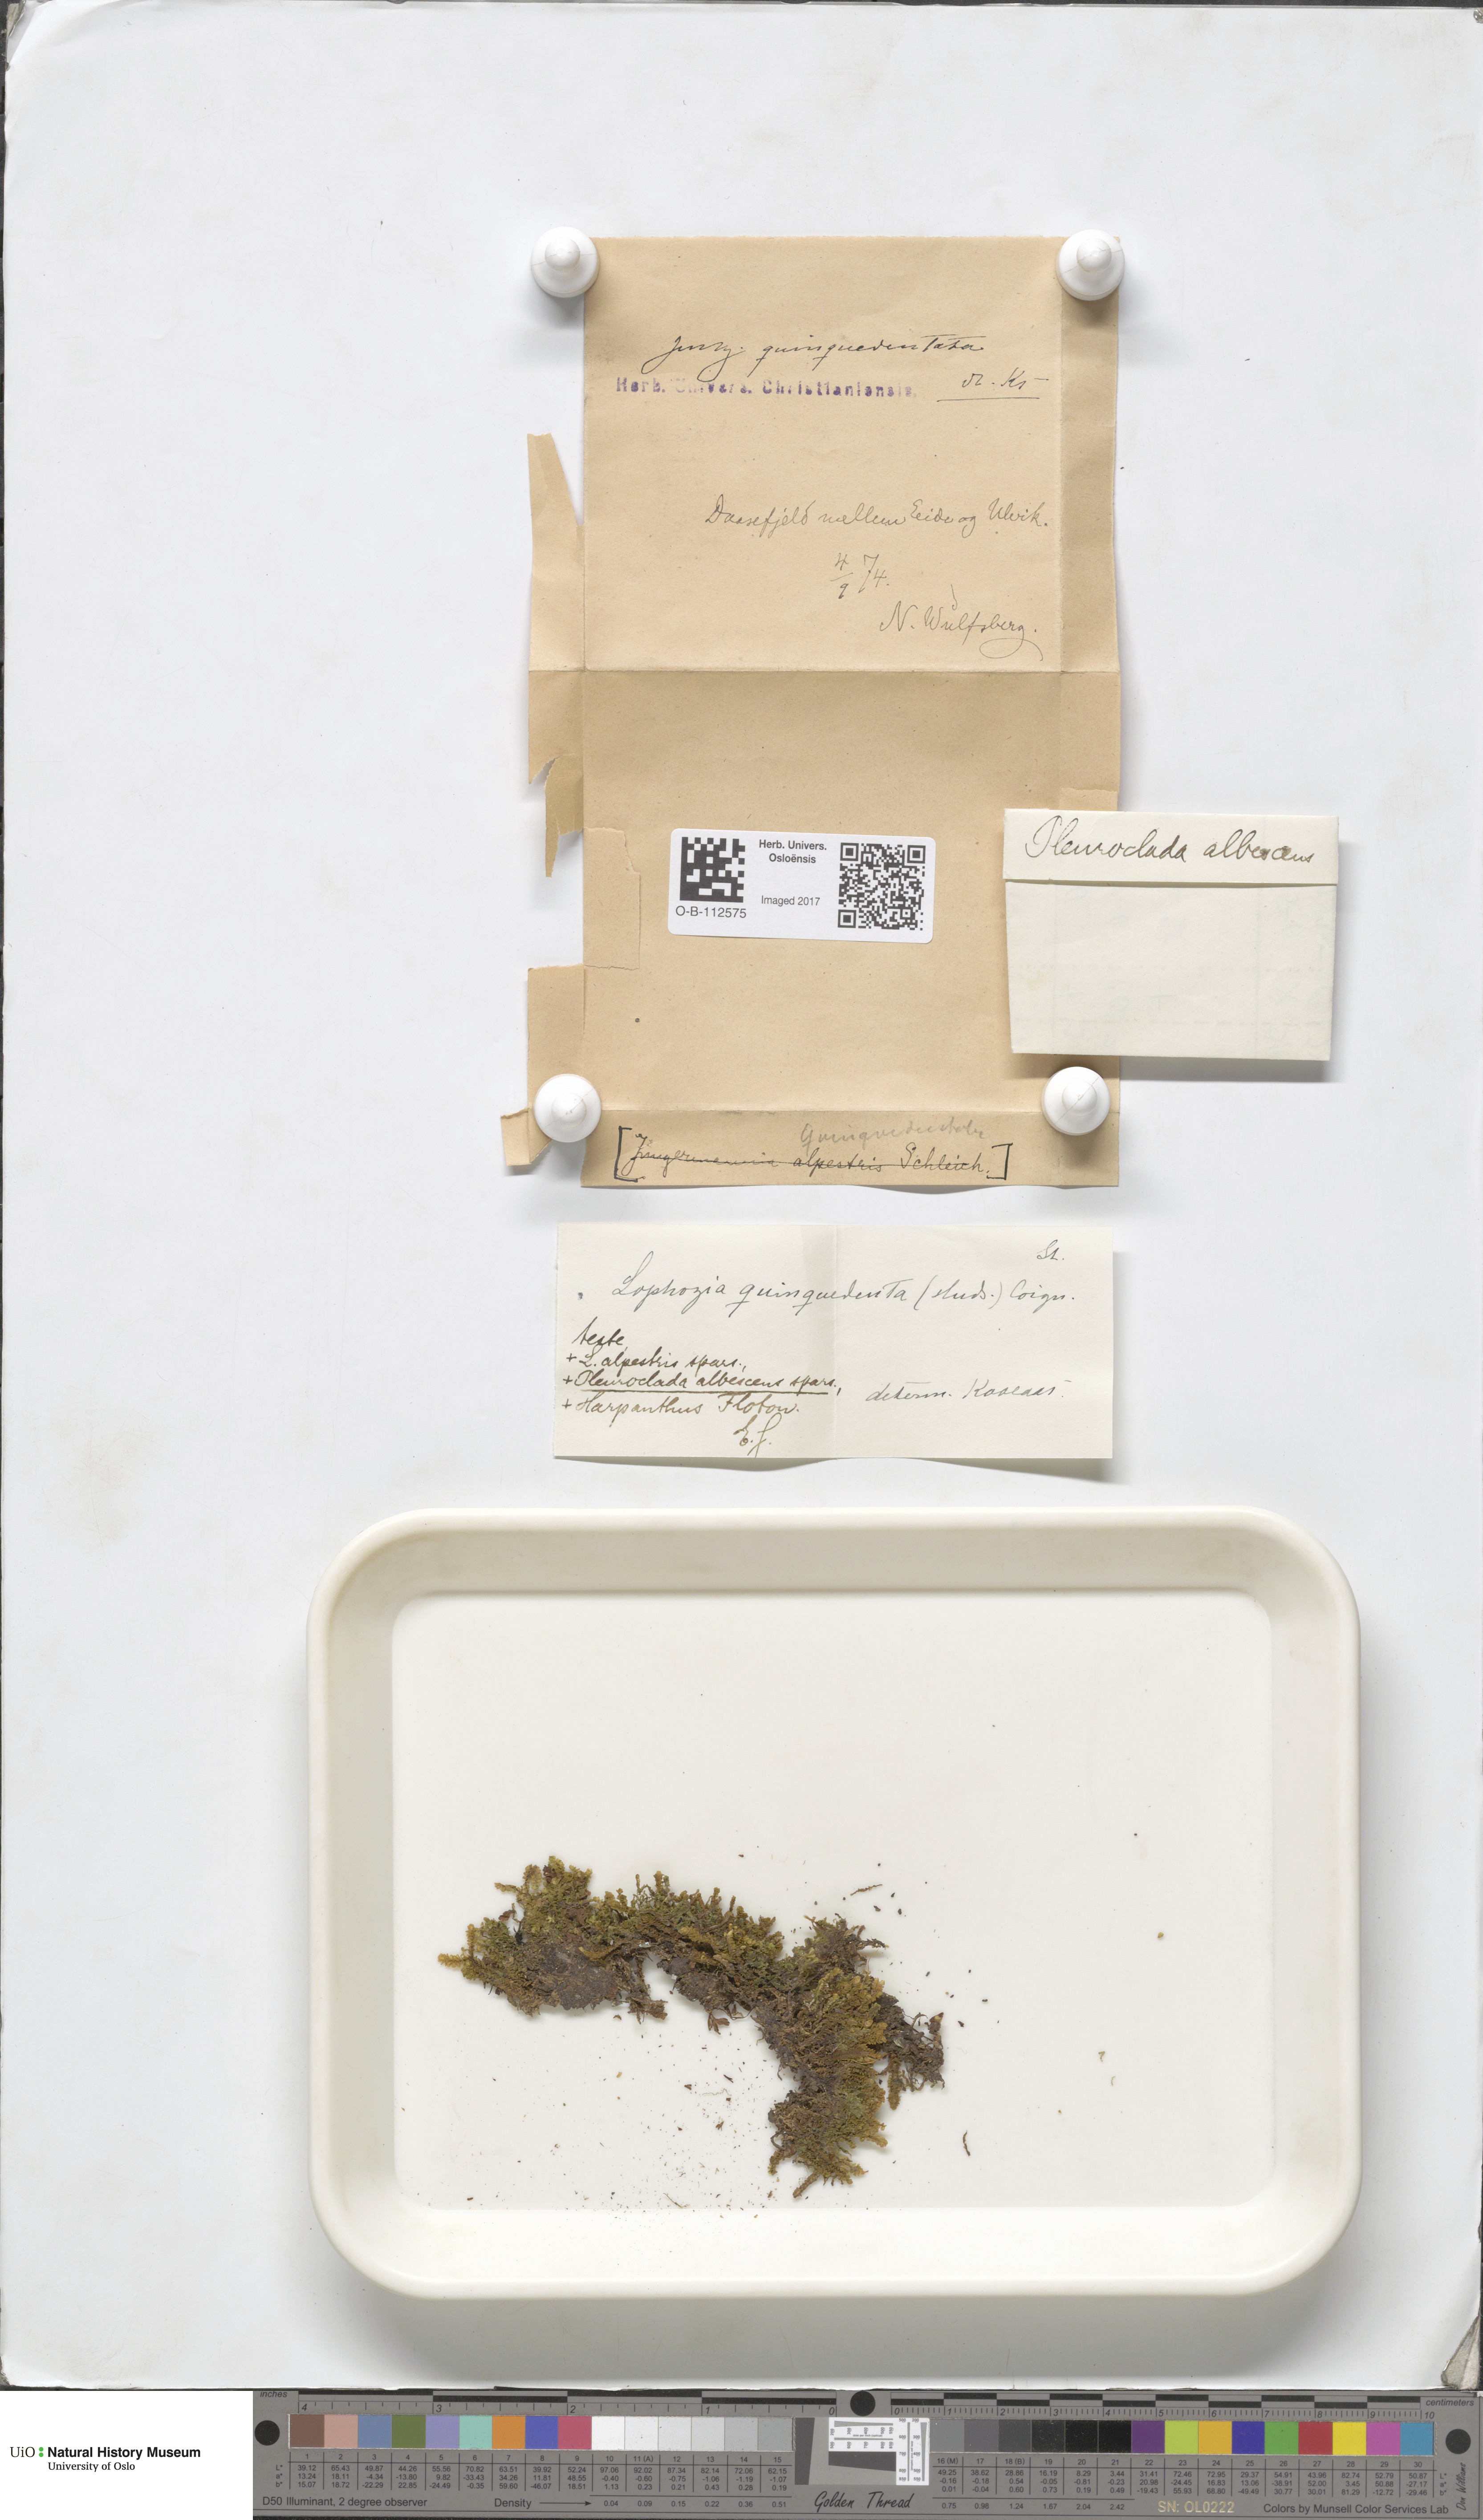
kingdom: Plantae
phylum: Marchantiophyta
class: Jungermanniopsida
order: Jungermanniales
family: Lophoziaceae
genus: Trilophozia
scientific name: Trilophozia quinquedentata
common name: Large notchwort
